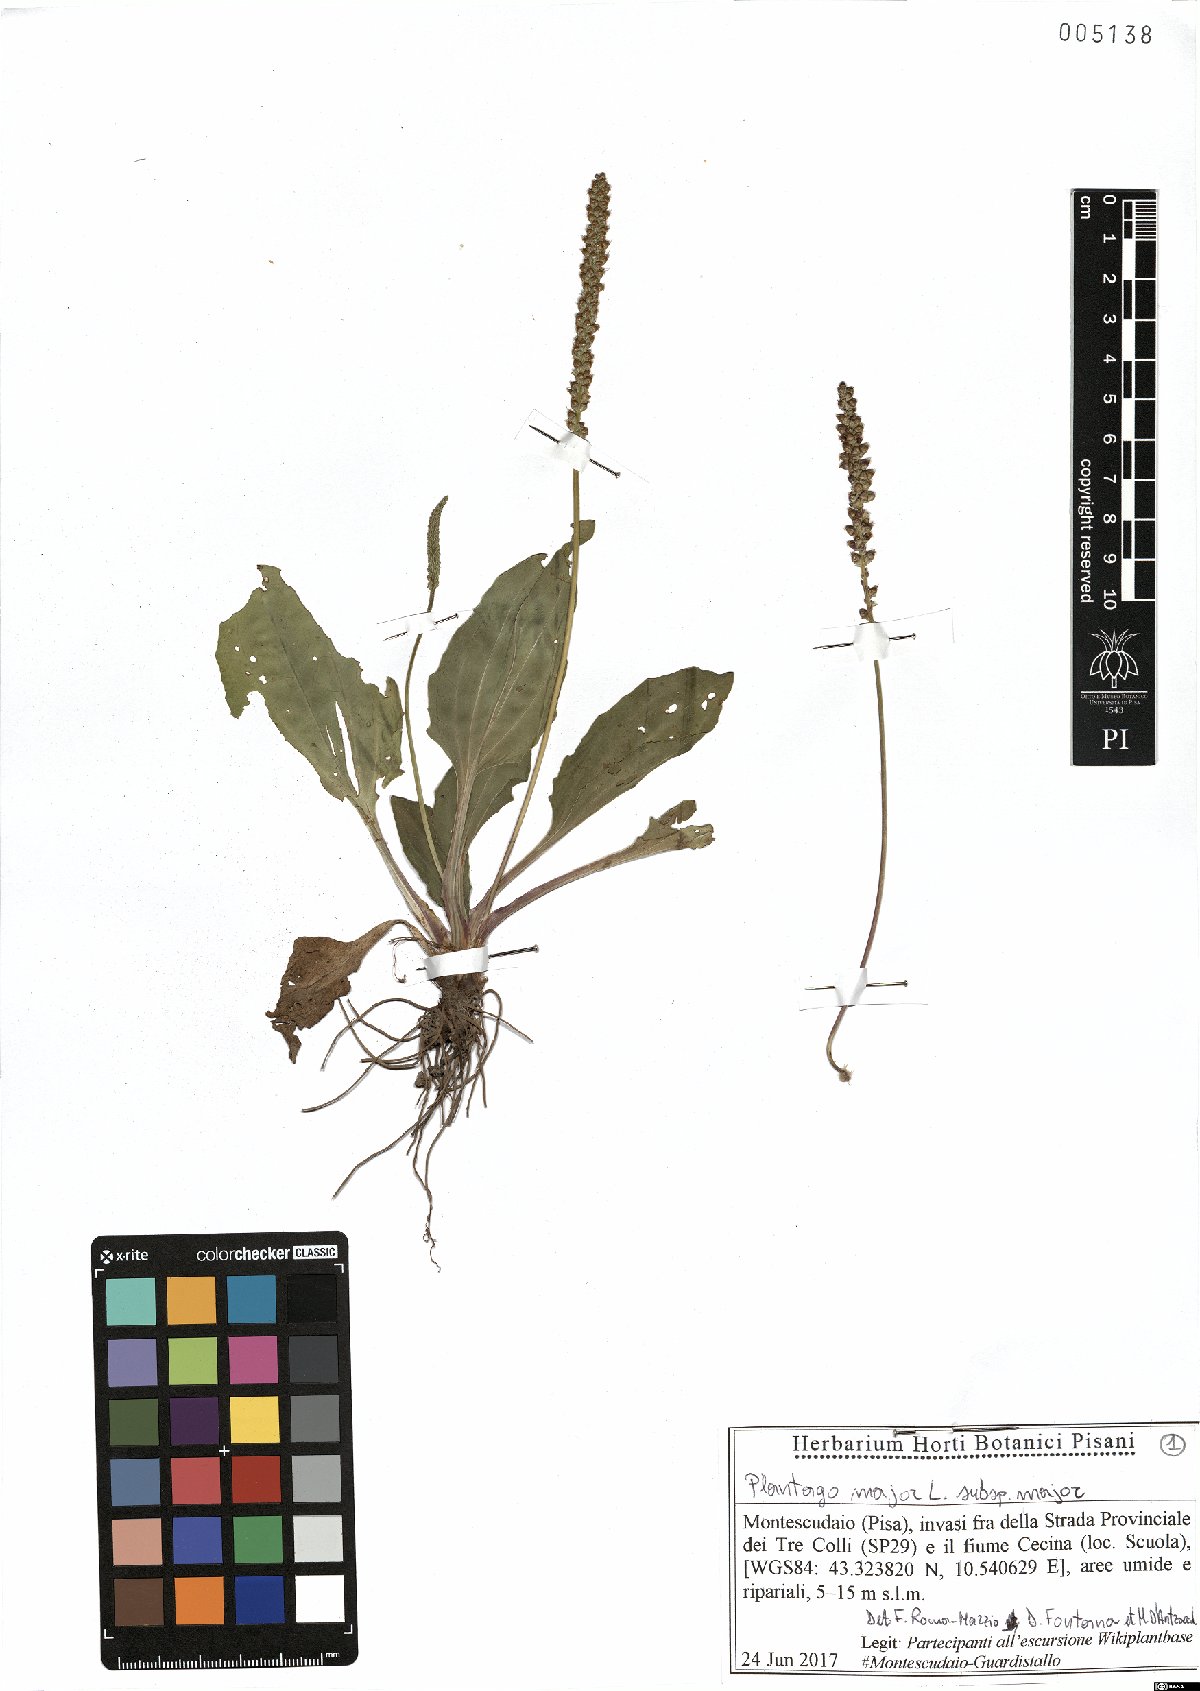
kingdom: Plantae
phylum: Tracheophyta
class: Magnoliopsida
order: Lamiales
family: Plantaginaceae
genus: Plantago
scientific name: Plantago major
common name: Common plantain
